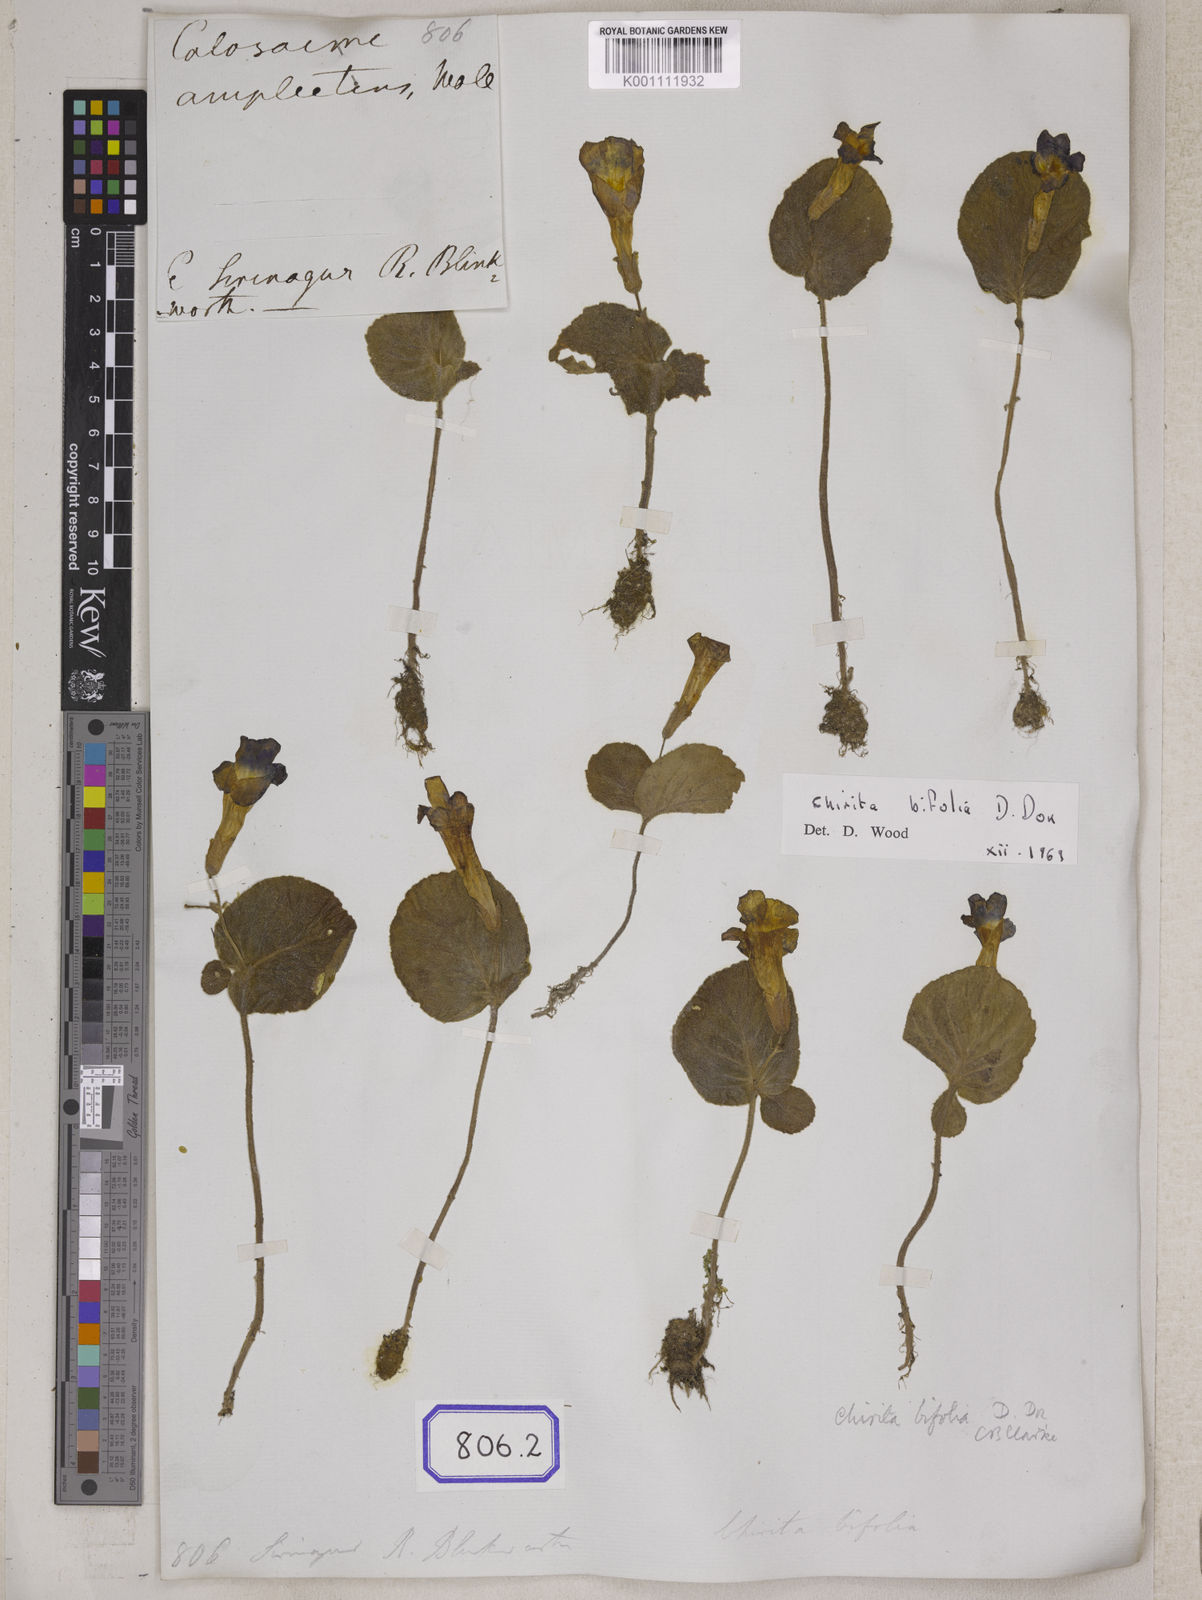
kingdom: Plantae
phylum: Tracheophyta
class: Magnoliopsida
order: Lamiales
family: Gesneriaceae
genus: Henckelia
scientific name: Henckelia bifolia
